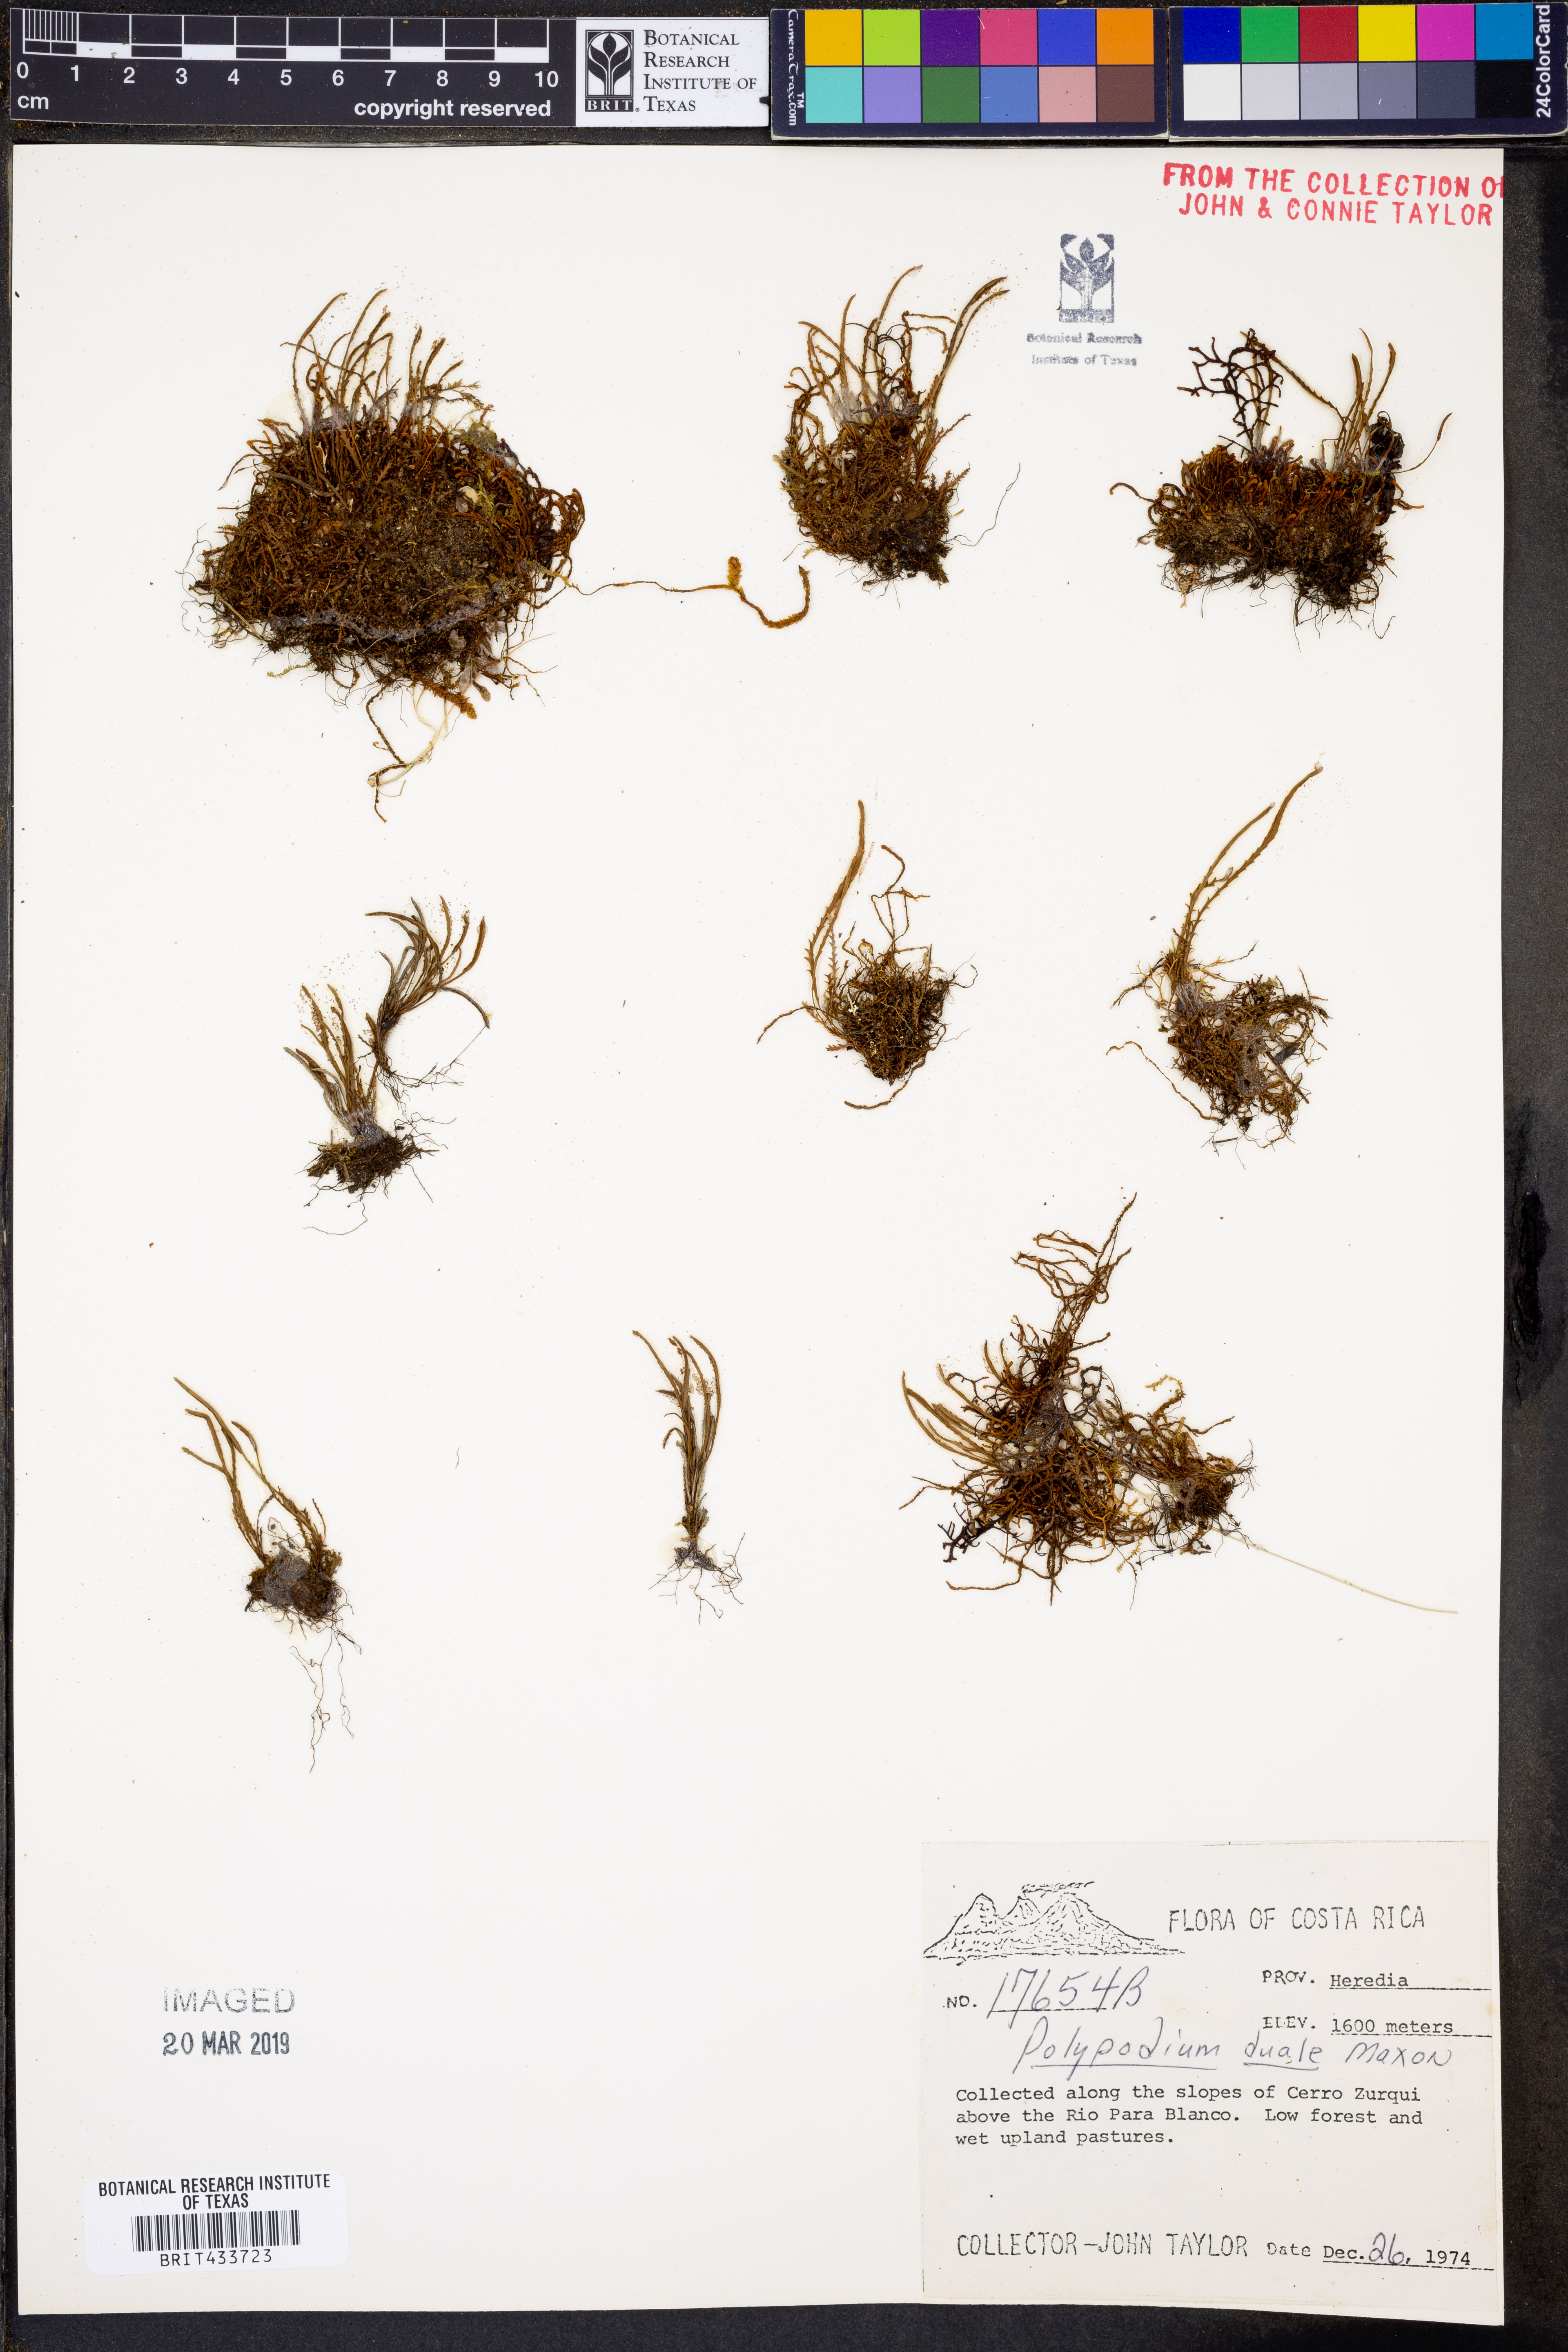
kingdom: Plantae
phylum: Tracheophyta
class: Polypodiopsida
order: Polypodiales
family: Polypodiaceae
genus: Cochlidium
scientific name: Cochlidium serrulatum
